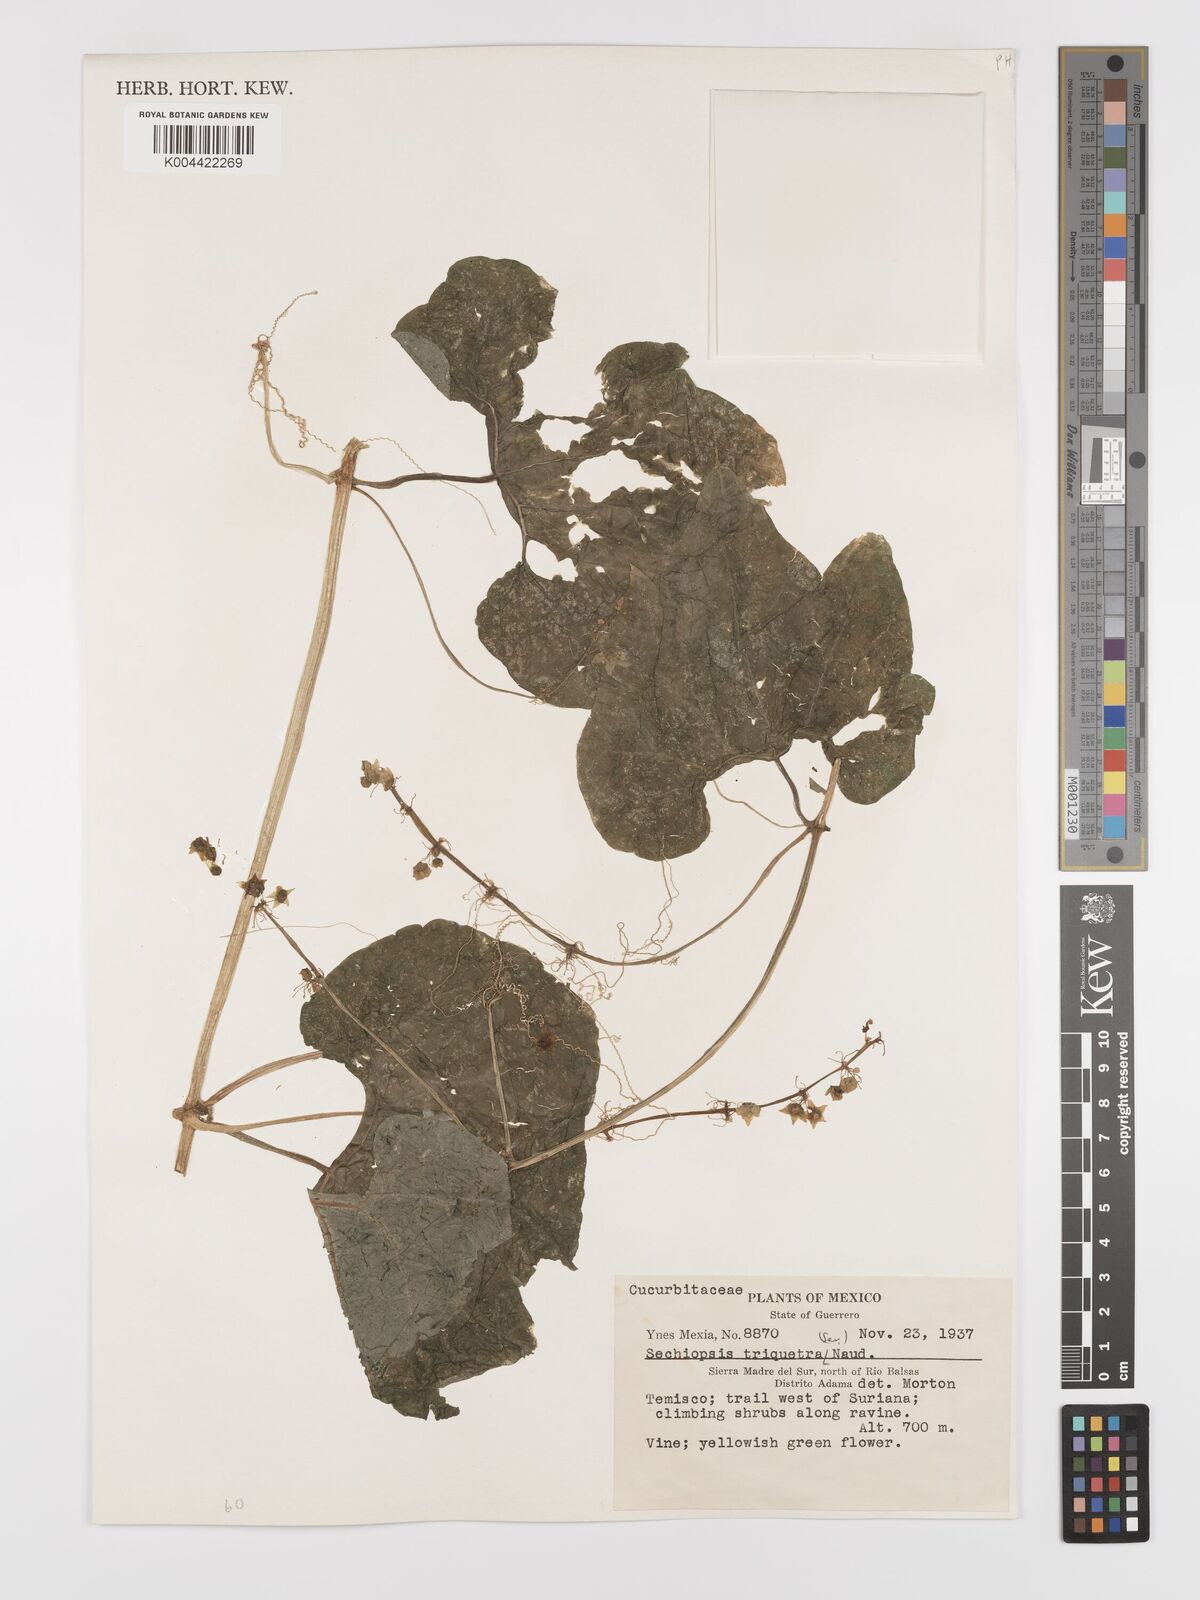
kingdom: Plantae
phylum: Tracheophyta
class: Magnoliopsida
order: Cucurbitales
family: Cucurbitaceae
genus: Sechiopsis
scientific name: Sechiopsis triqueter
